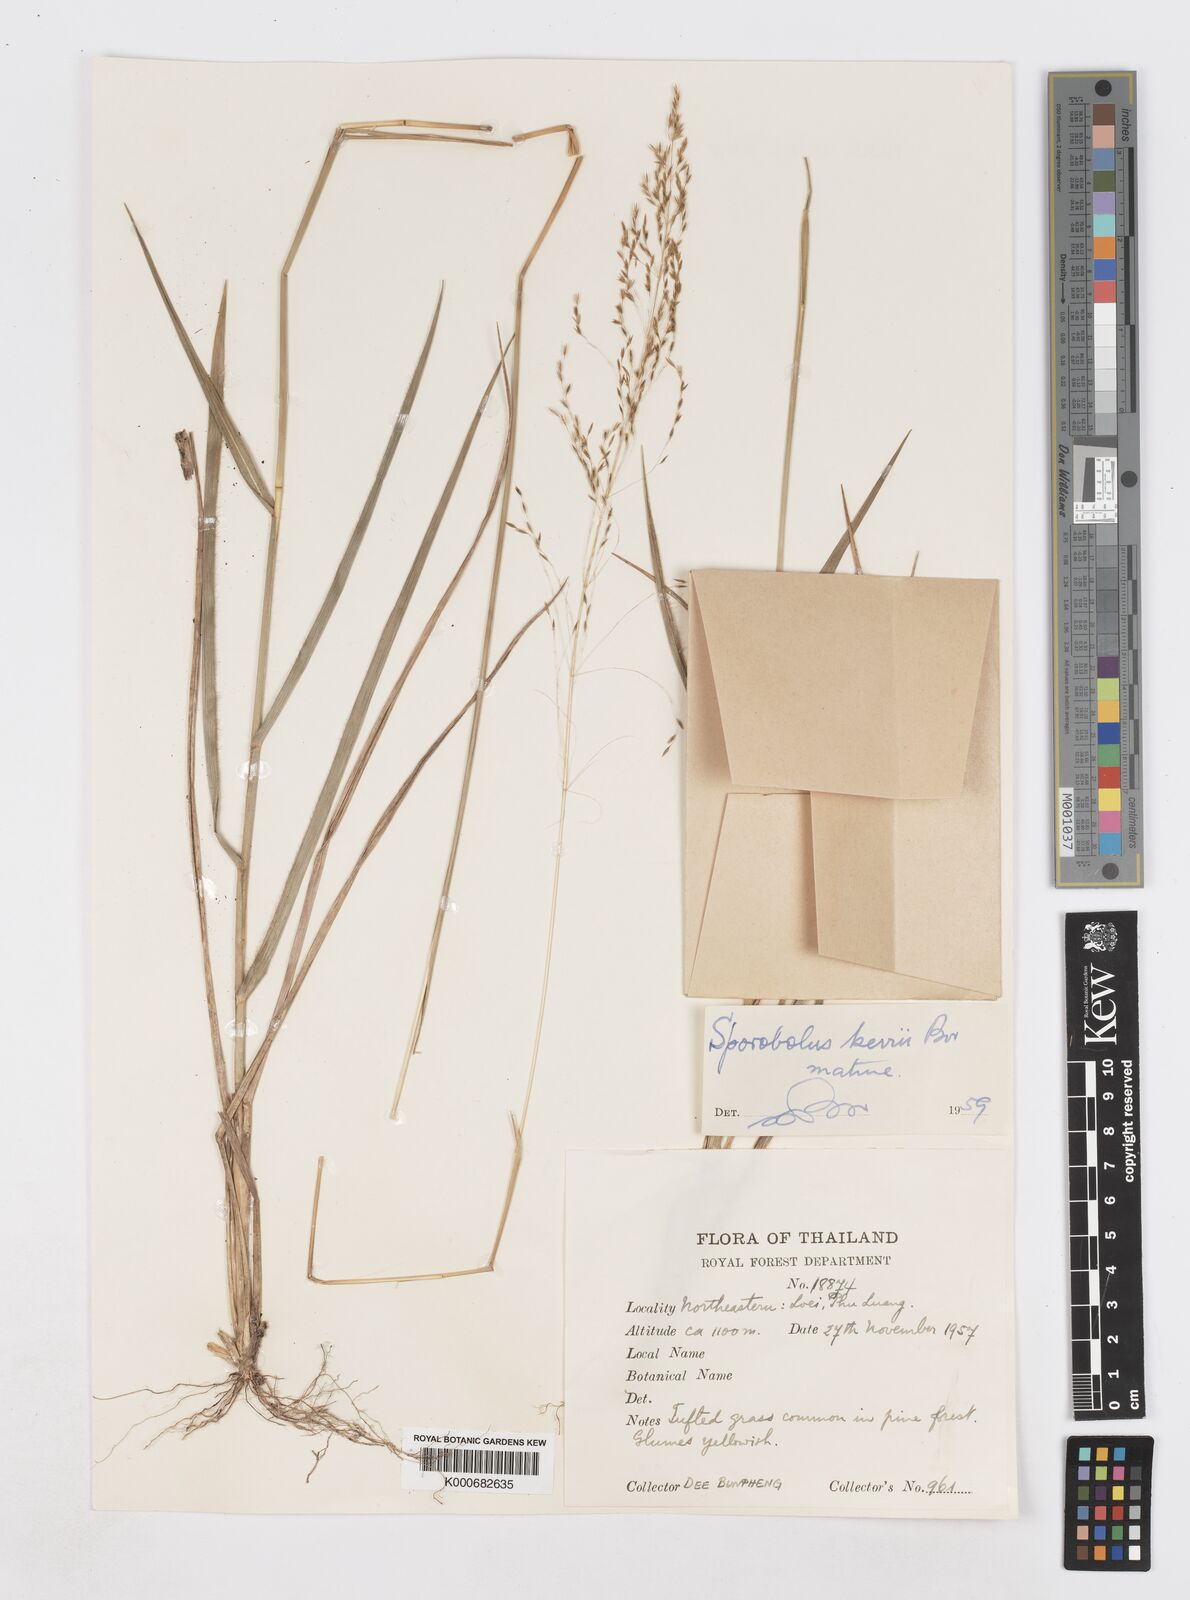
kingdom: Plantae
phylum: Tracheophyta
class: Liliopsida
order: Poales
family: Poaceae
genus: Sporobolus
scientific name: Sporobolus kerrii
